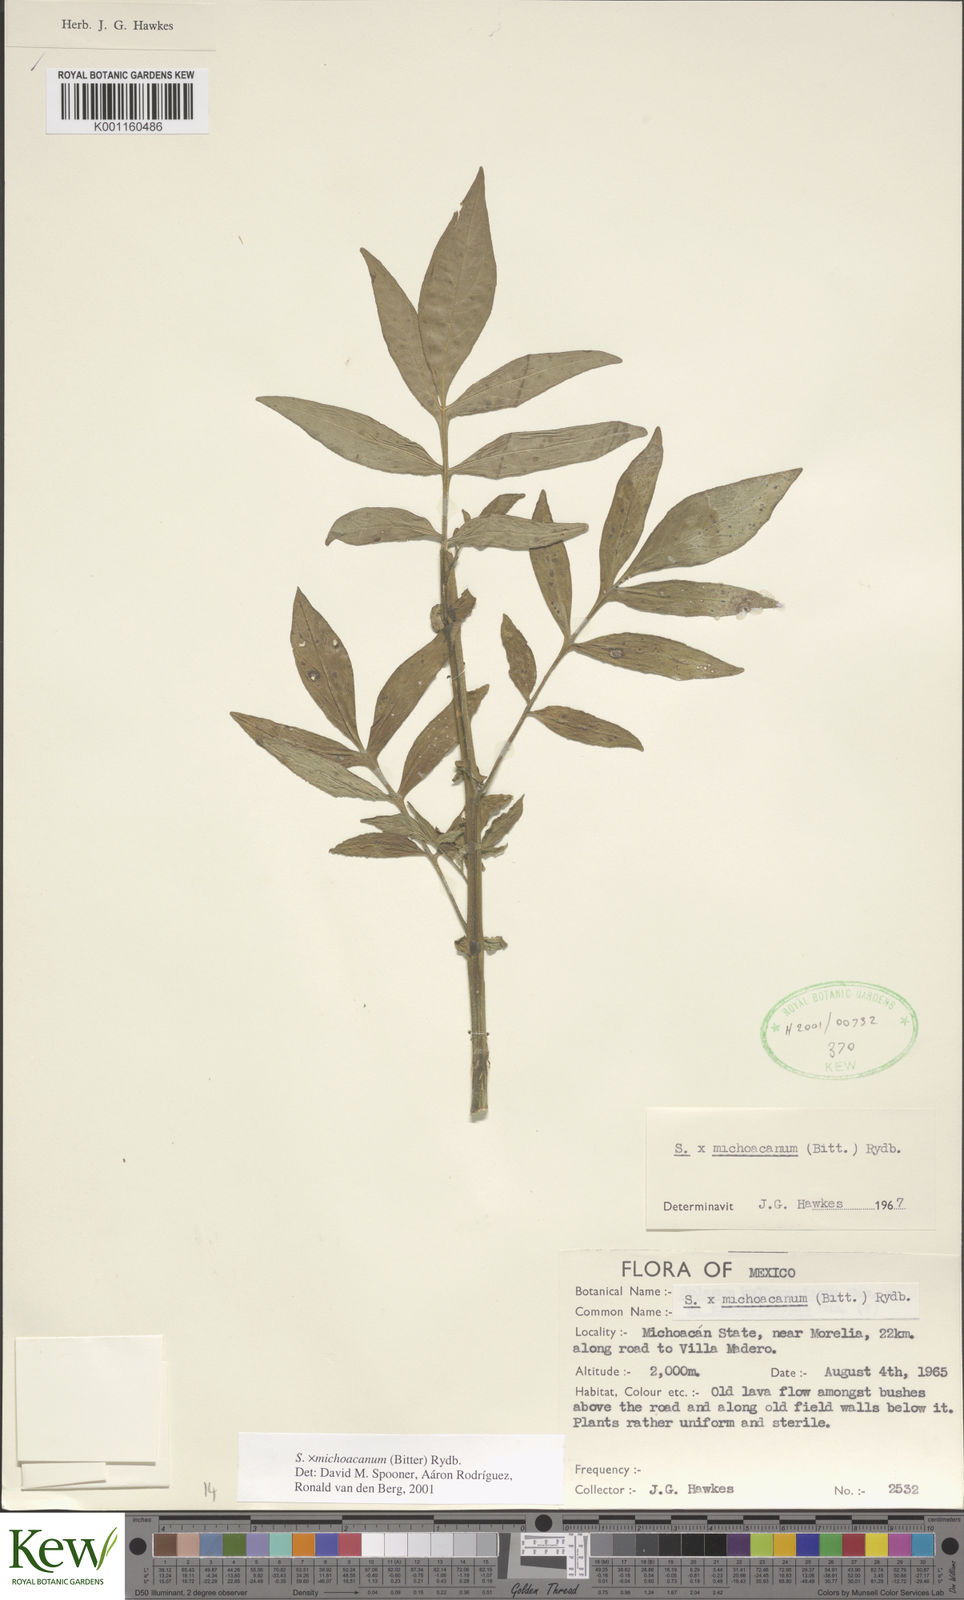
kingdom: Plantae
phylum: Tracheophyta
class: Magnoliopsida
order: Solanales
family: Solanaceae
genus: Solanum
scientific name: Solanum bulbocastanum
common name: Ornamental nightshade
